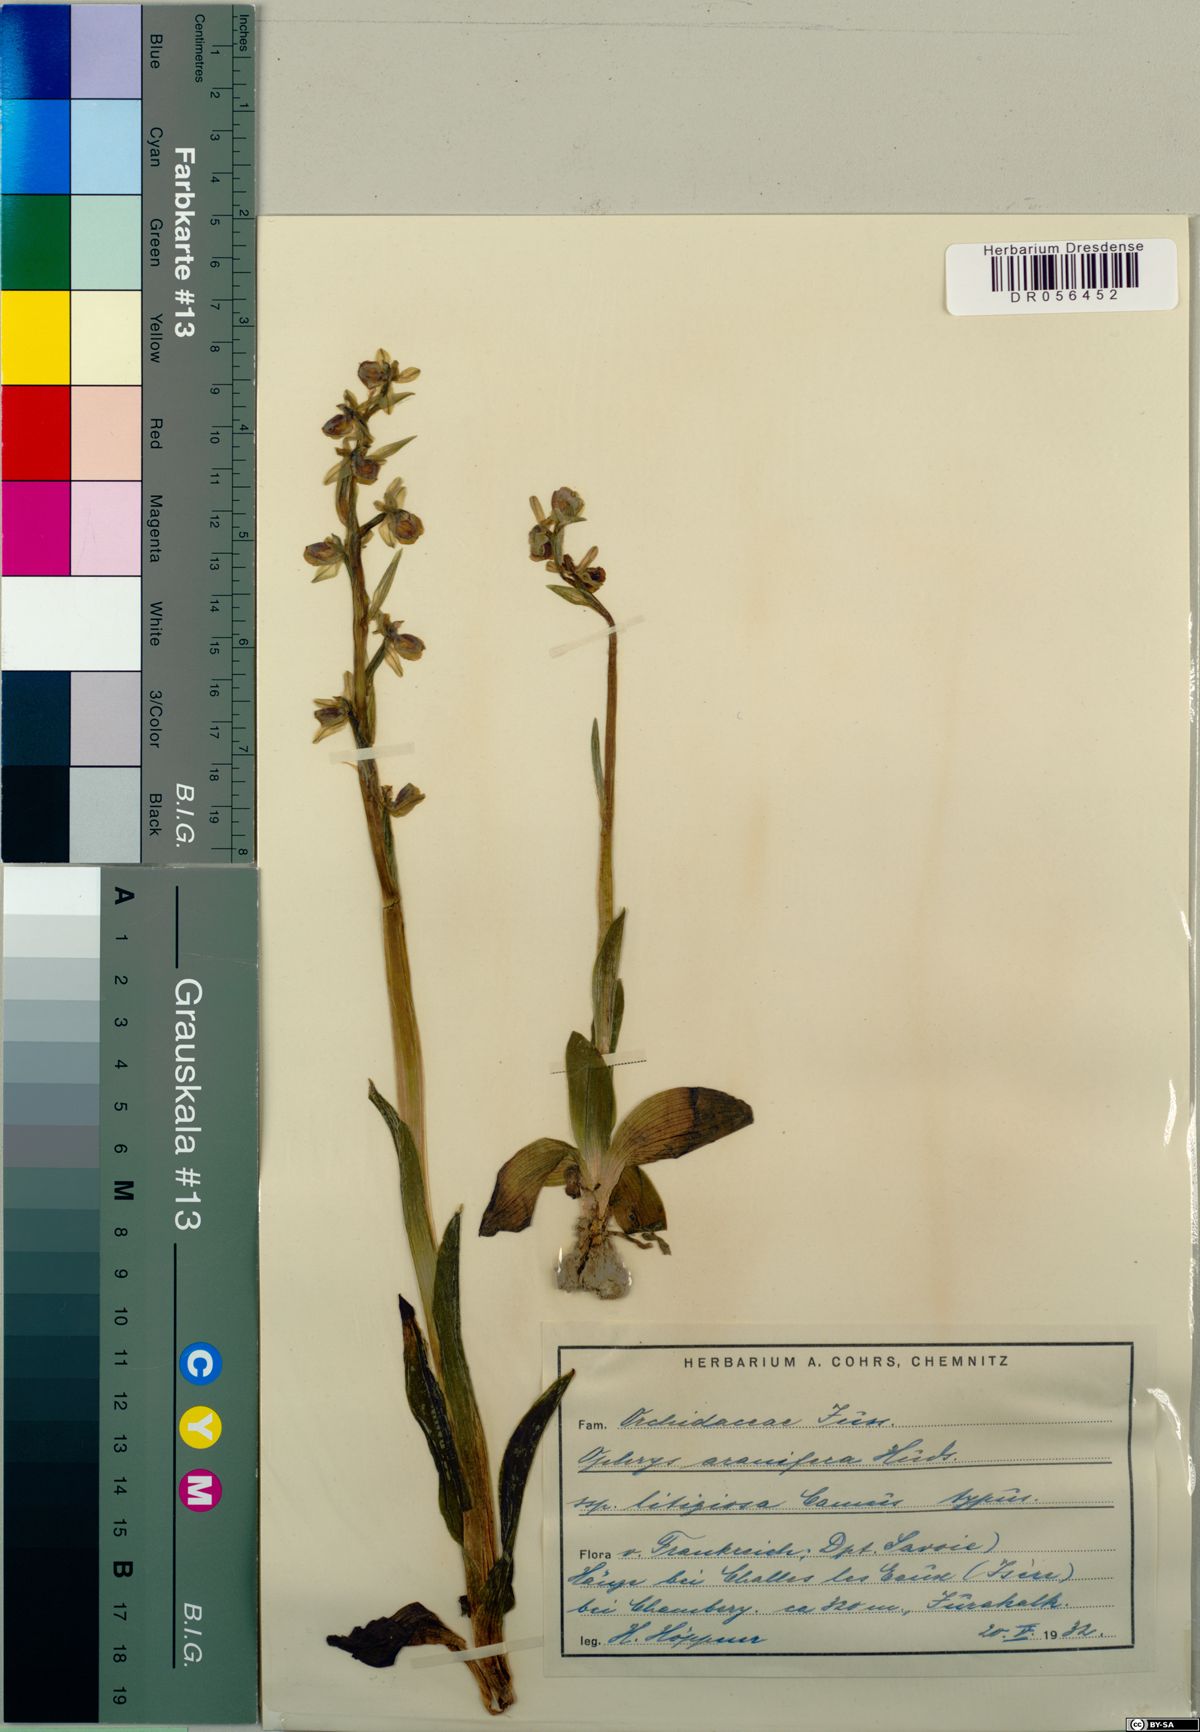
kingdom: Plantae
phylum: Tracheophyta
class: Liliopsida
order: Asparagales
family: Orchidaceae
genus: Ophrys
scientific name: Ophrys sphegodes
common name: Early spider-orchid
